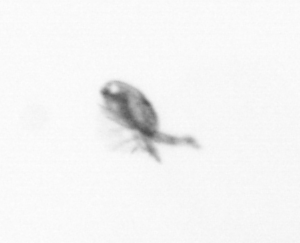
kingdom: Animalia
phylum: Arthropoda
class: Copepoda
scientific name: Copepoda
